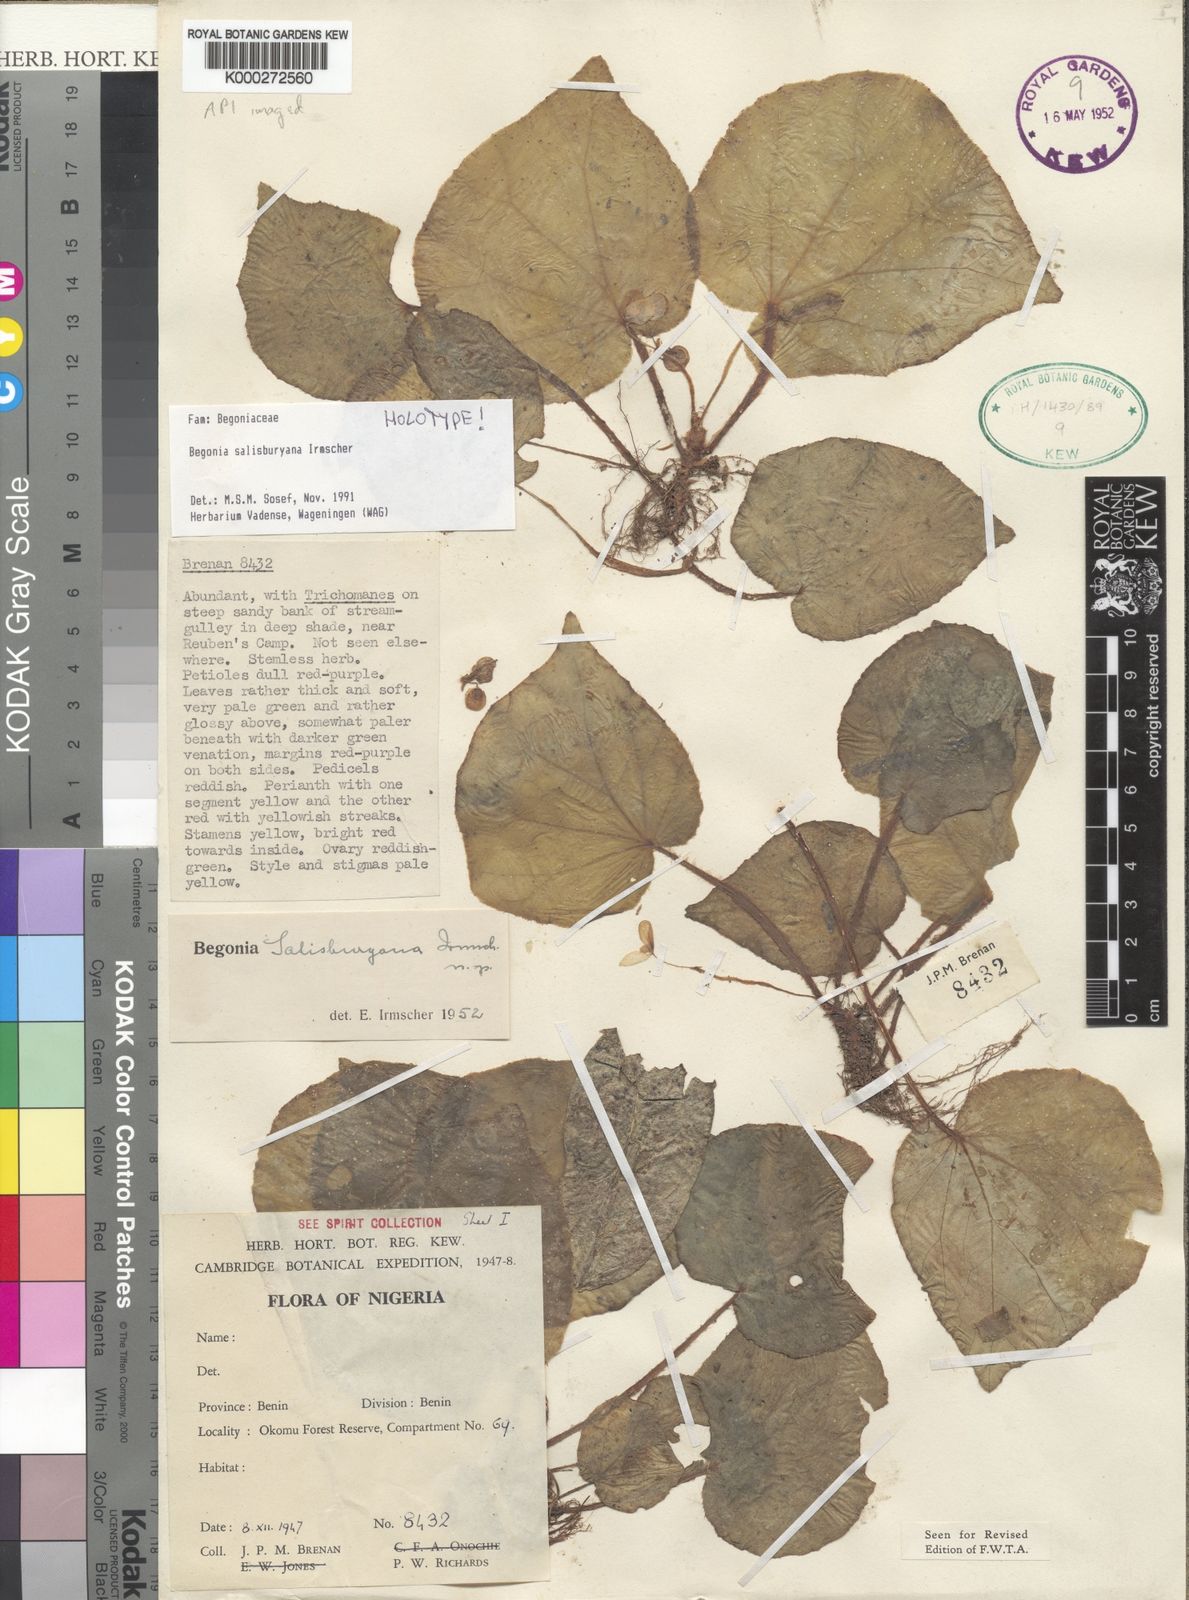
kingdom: Plantae
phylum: Tracheophyta
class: Magnoliopsida
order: Cucurbitales
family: Begoniaceae
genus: Begonia
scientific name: Begonia salisburyana
